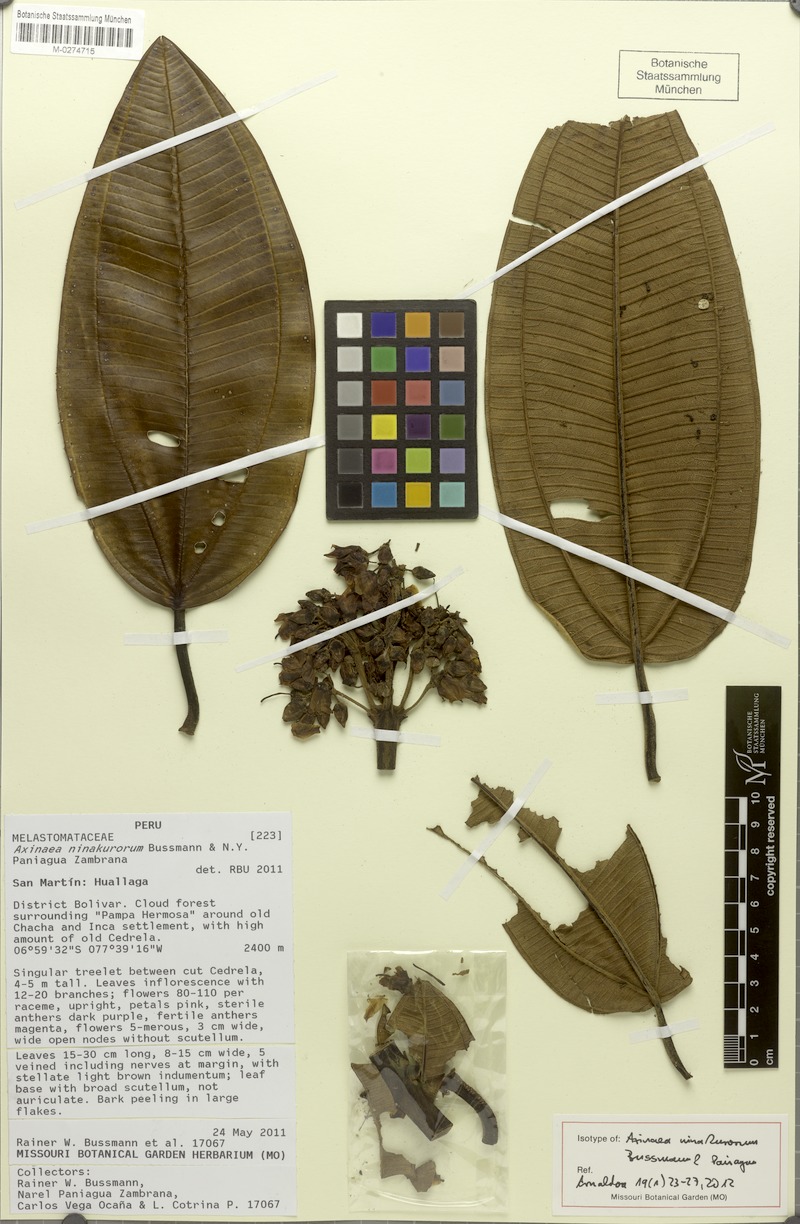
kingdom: Plantae
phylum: Tracheophyta
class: Magnoliopsida
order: Myrtales
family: Melastomataceae
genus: Axinaea
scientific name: Axinaea ninakurorum
